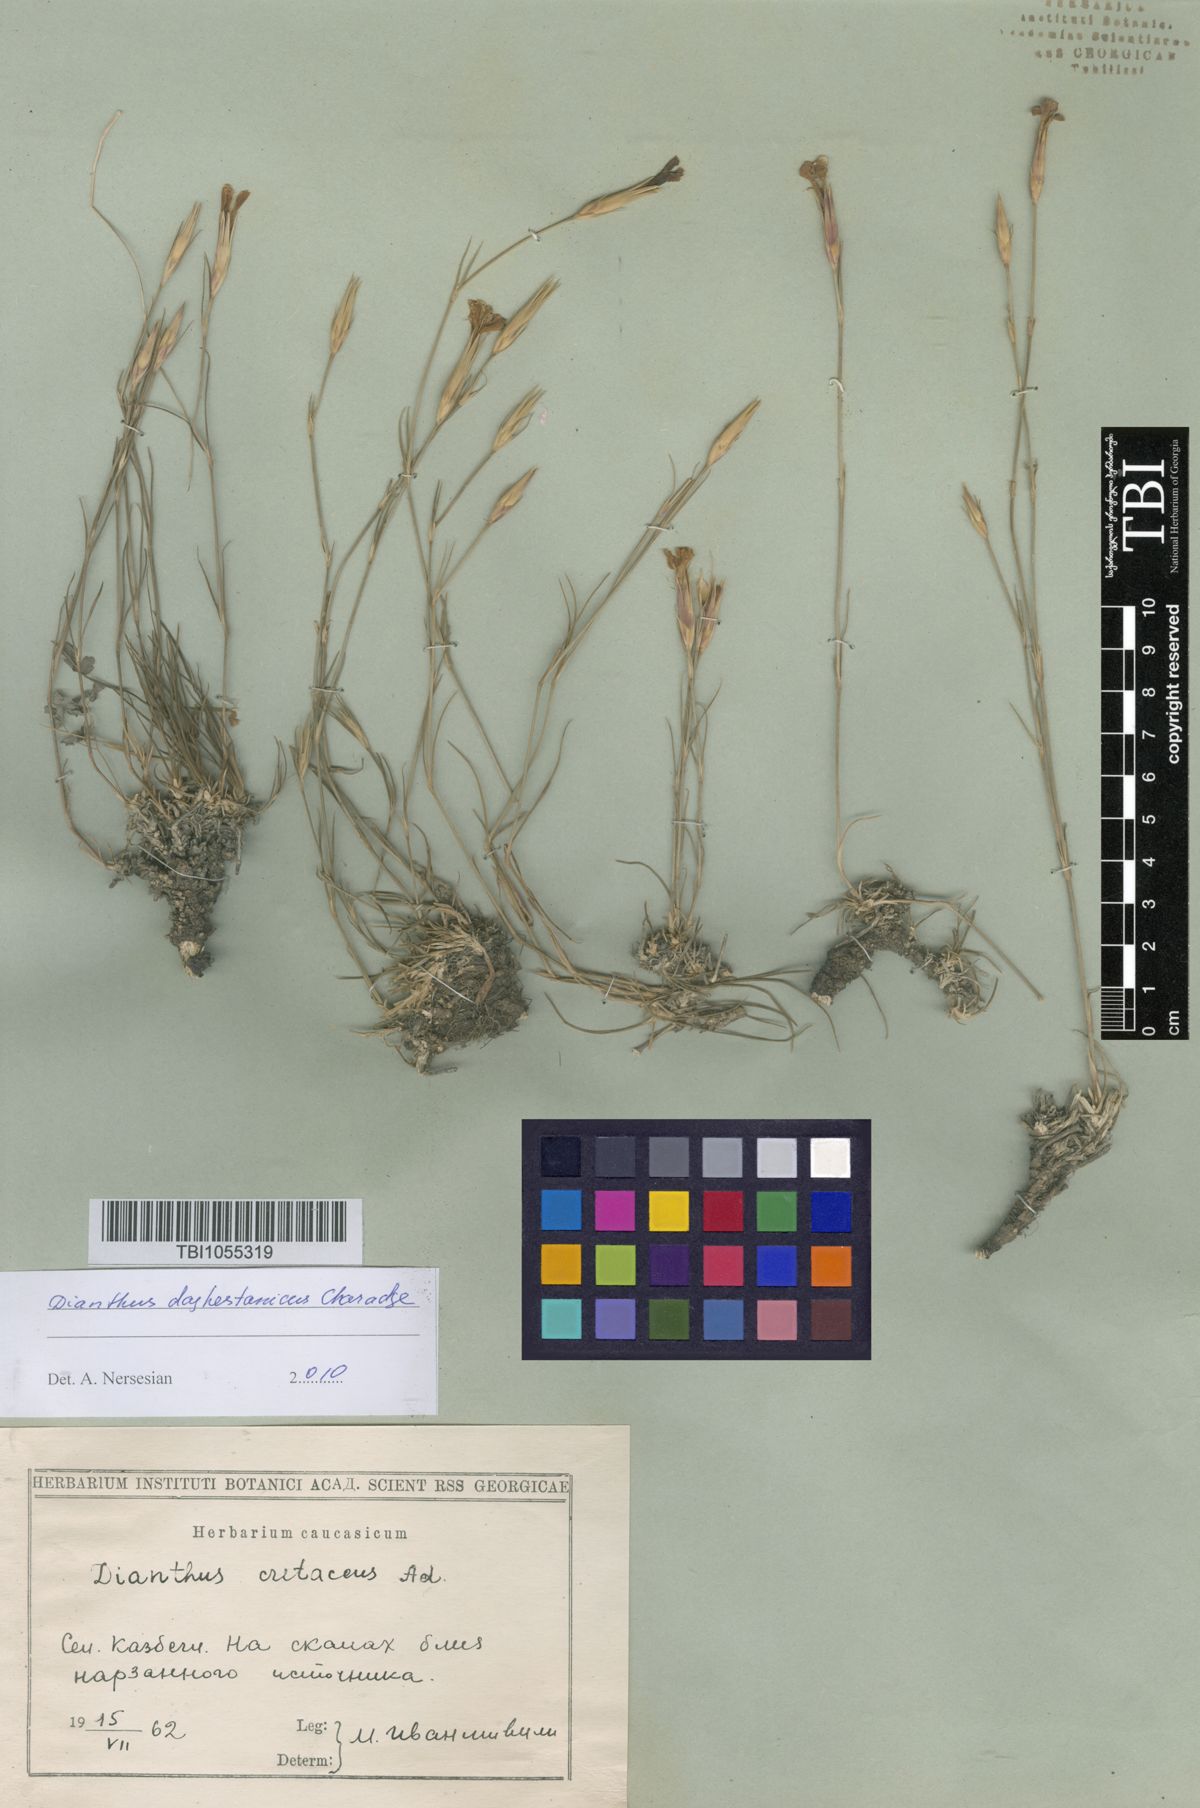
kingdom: Plantae
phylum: Tracheophyta
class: Magnoliopsida
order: Caryophyllales
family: Caryophyllaceae
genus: Dianthus
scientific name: Dianthus cretaceus
